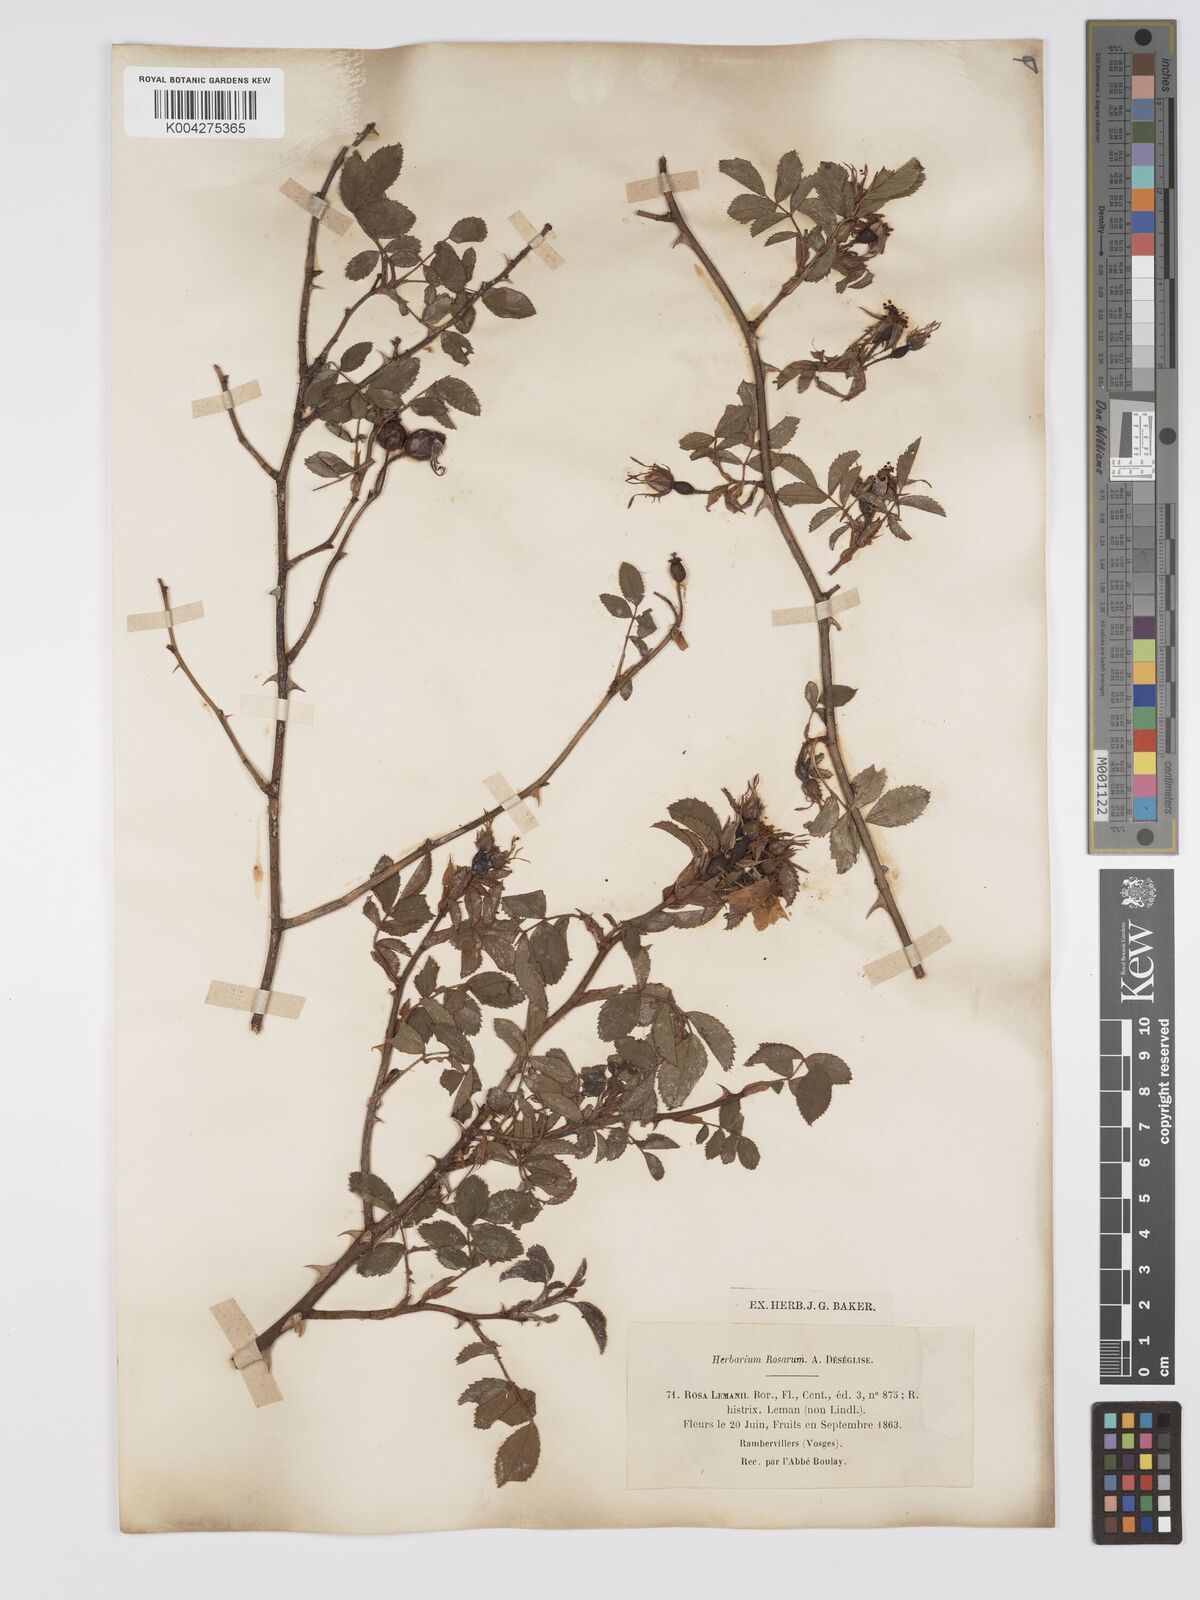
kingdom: Plantae
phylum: Tracheophyta
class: Magnoliopsida
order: Rosales
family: Rosaceae
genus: Rosa
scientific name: Rosa laevigata
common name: Cherokee rose
